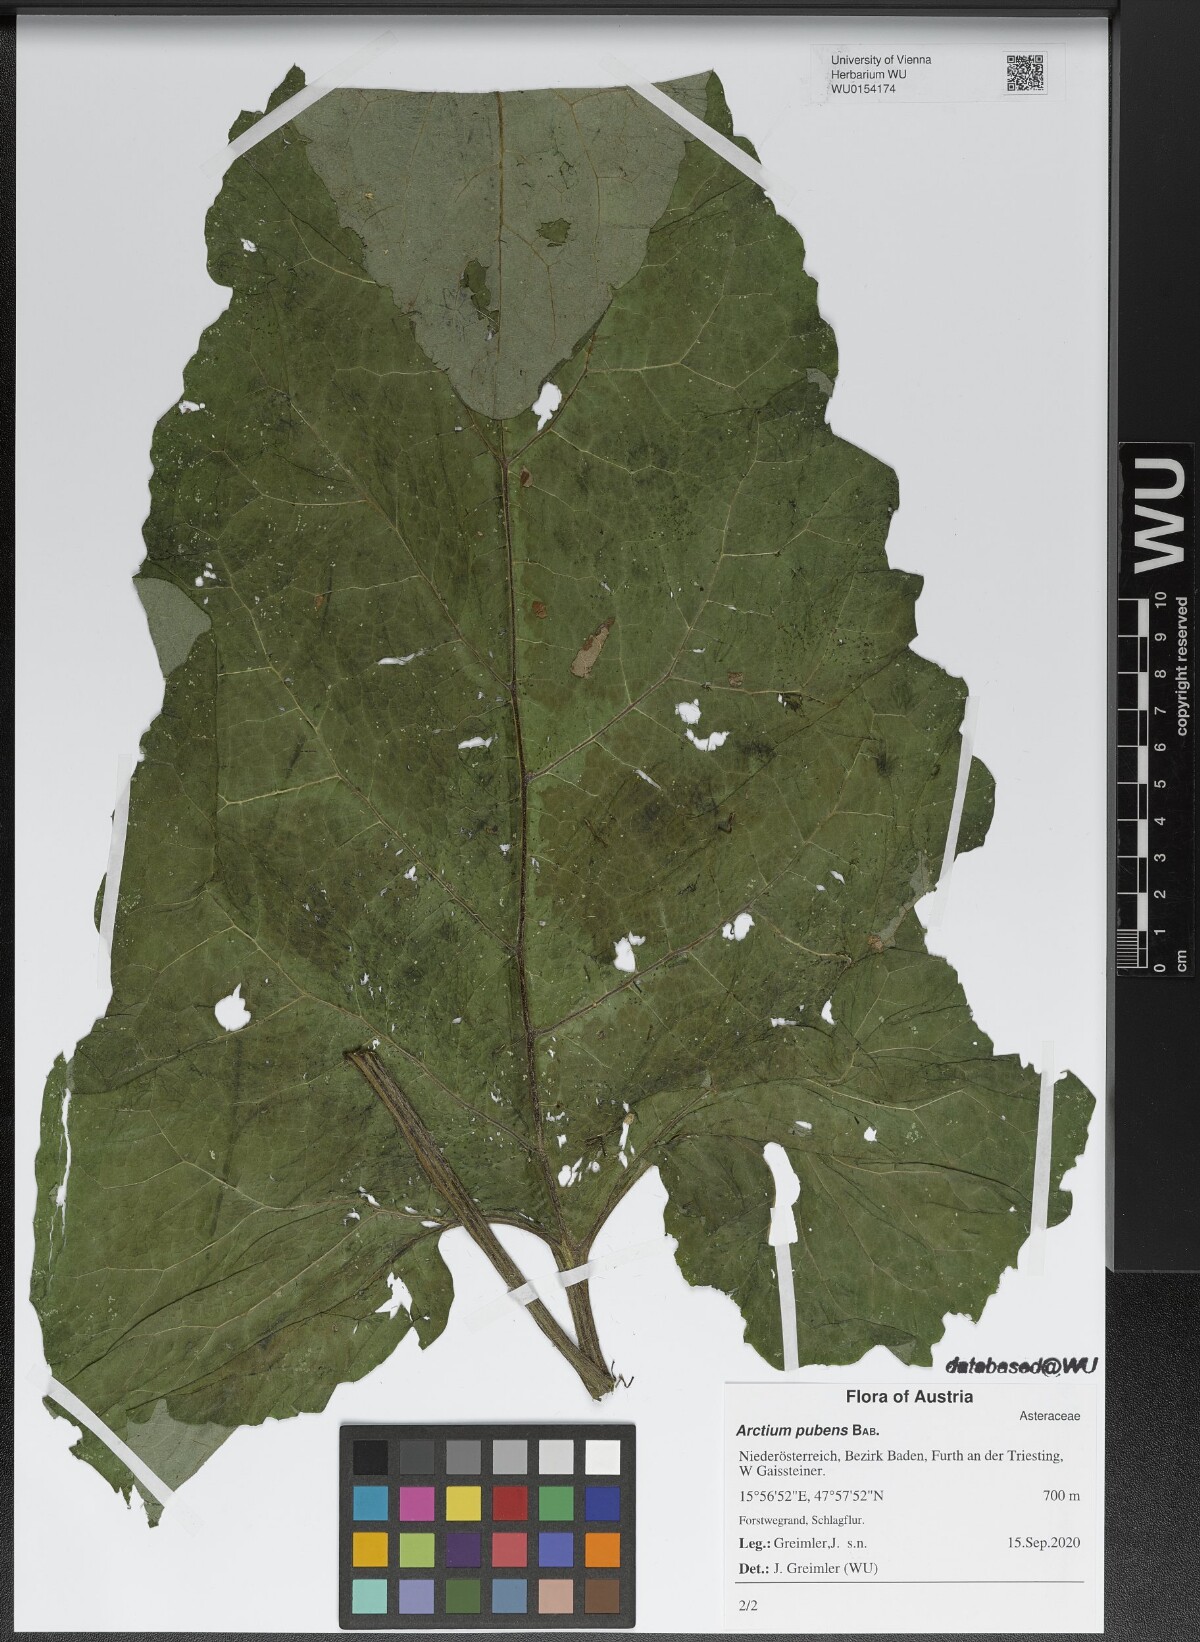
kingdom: Plantae
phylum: Tracheophyta
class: Magnoliopsida
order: Asterales
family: Asteraceae
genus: Arctium
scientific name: Arctium minus
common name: Lesser burdock
